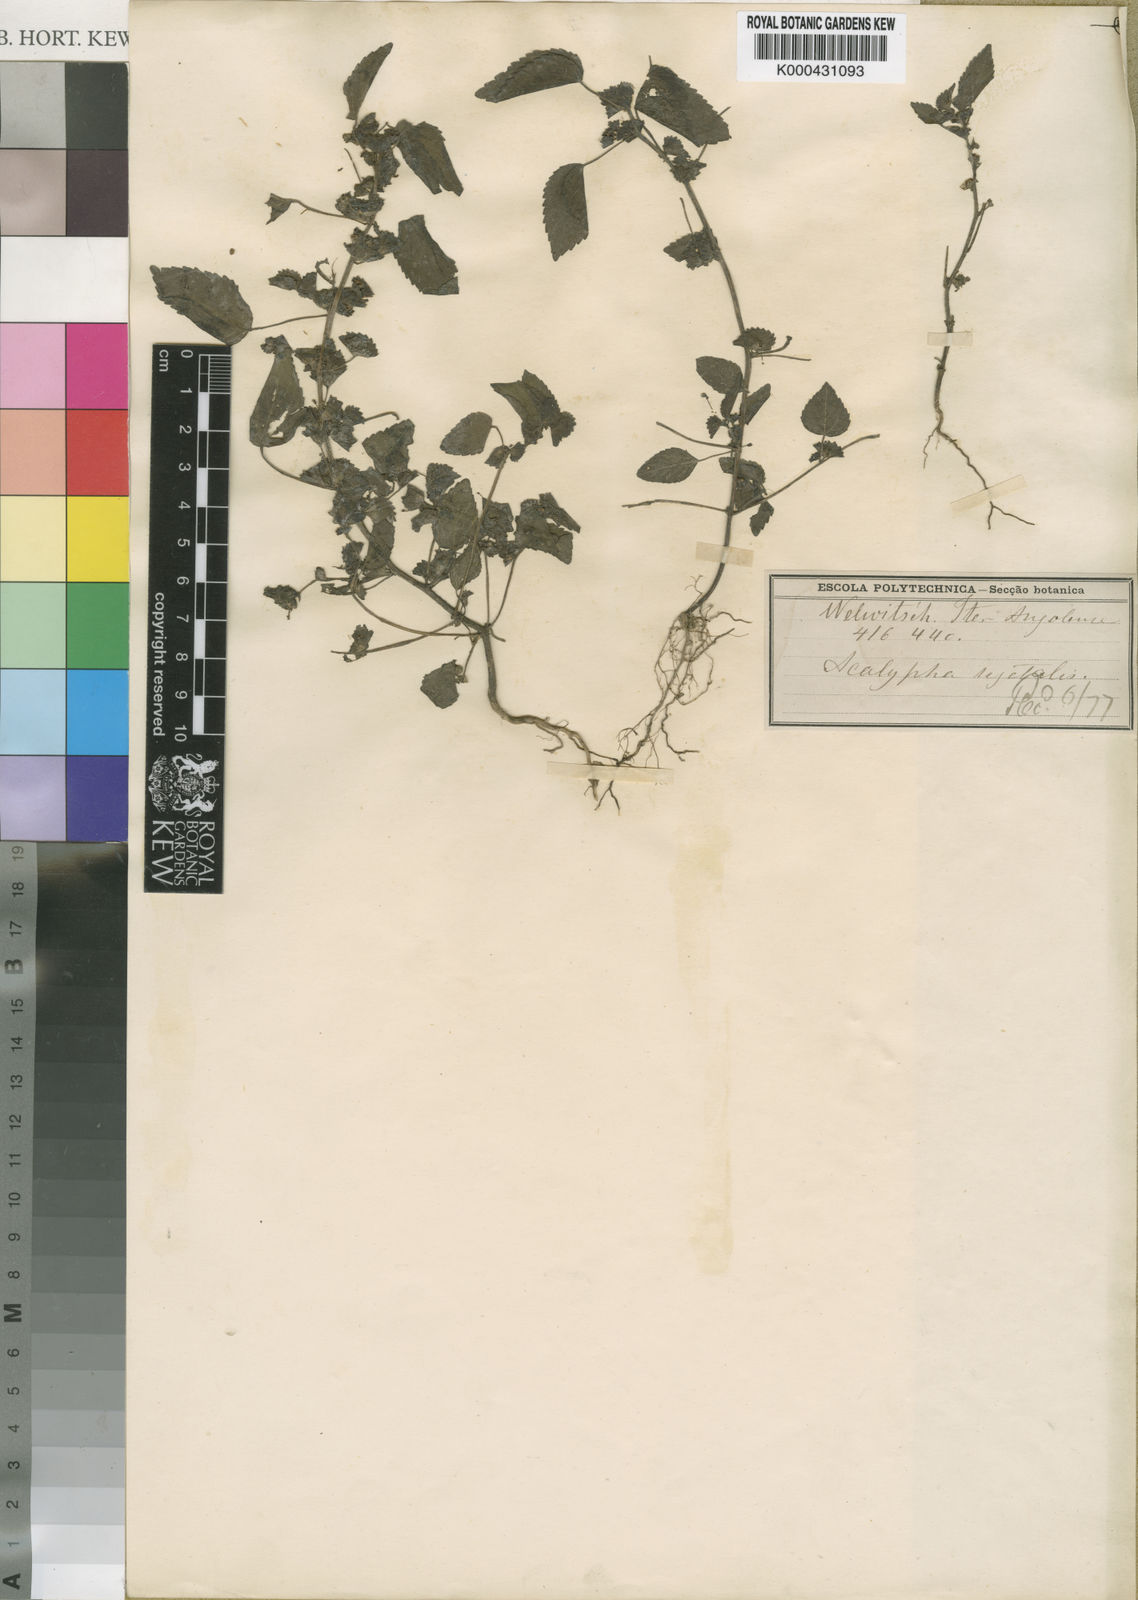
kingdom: Plantae
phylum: Tracheophyta
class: Magnoliopsida
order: Malpighiales
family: Euphorbiaceae
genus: Acalypha
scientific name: Acalypha
